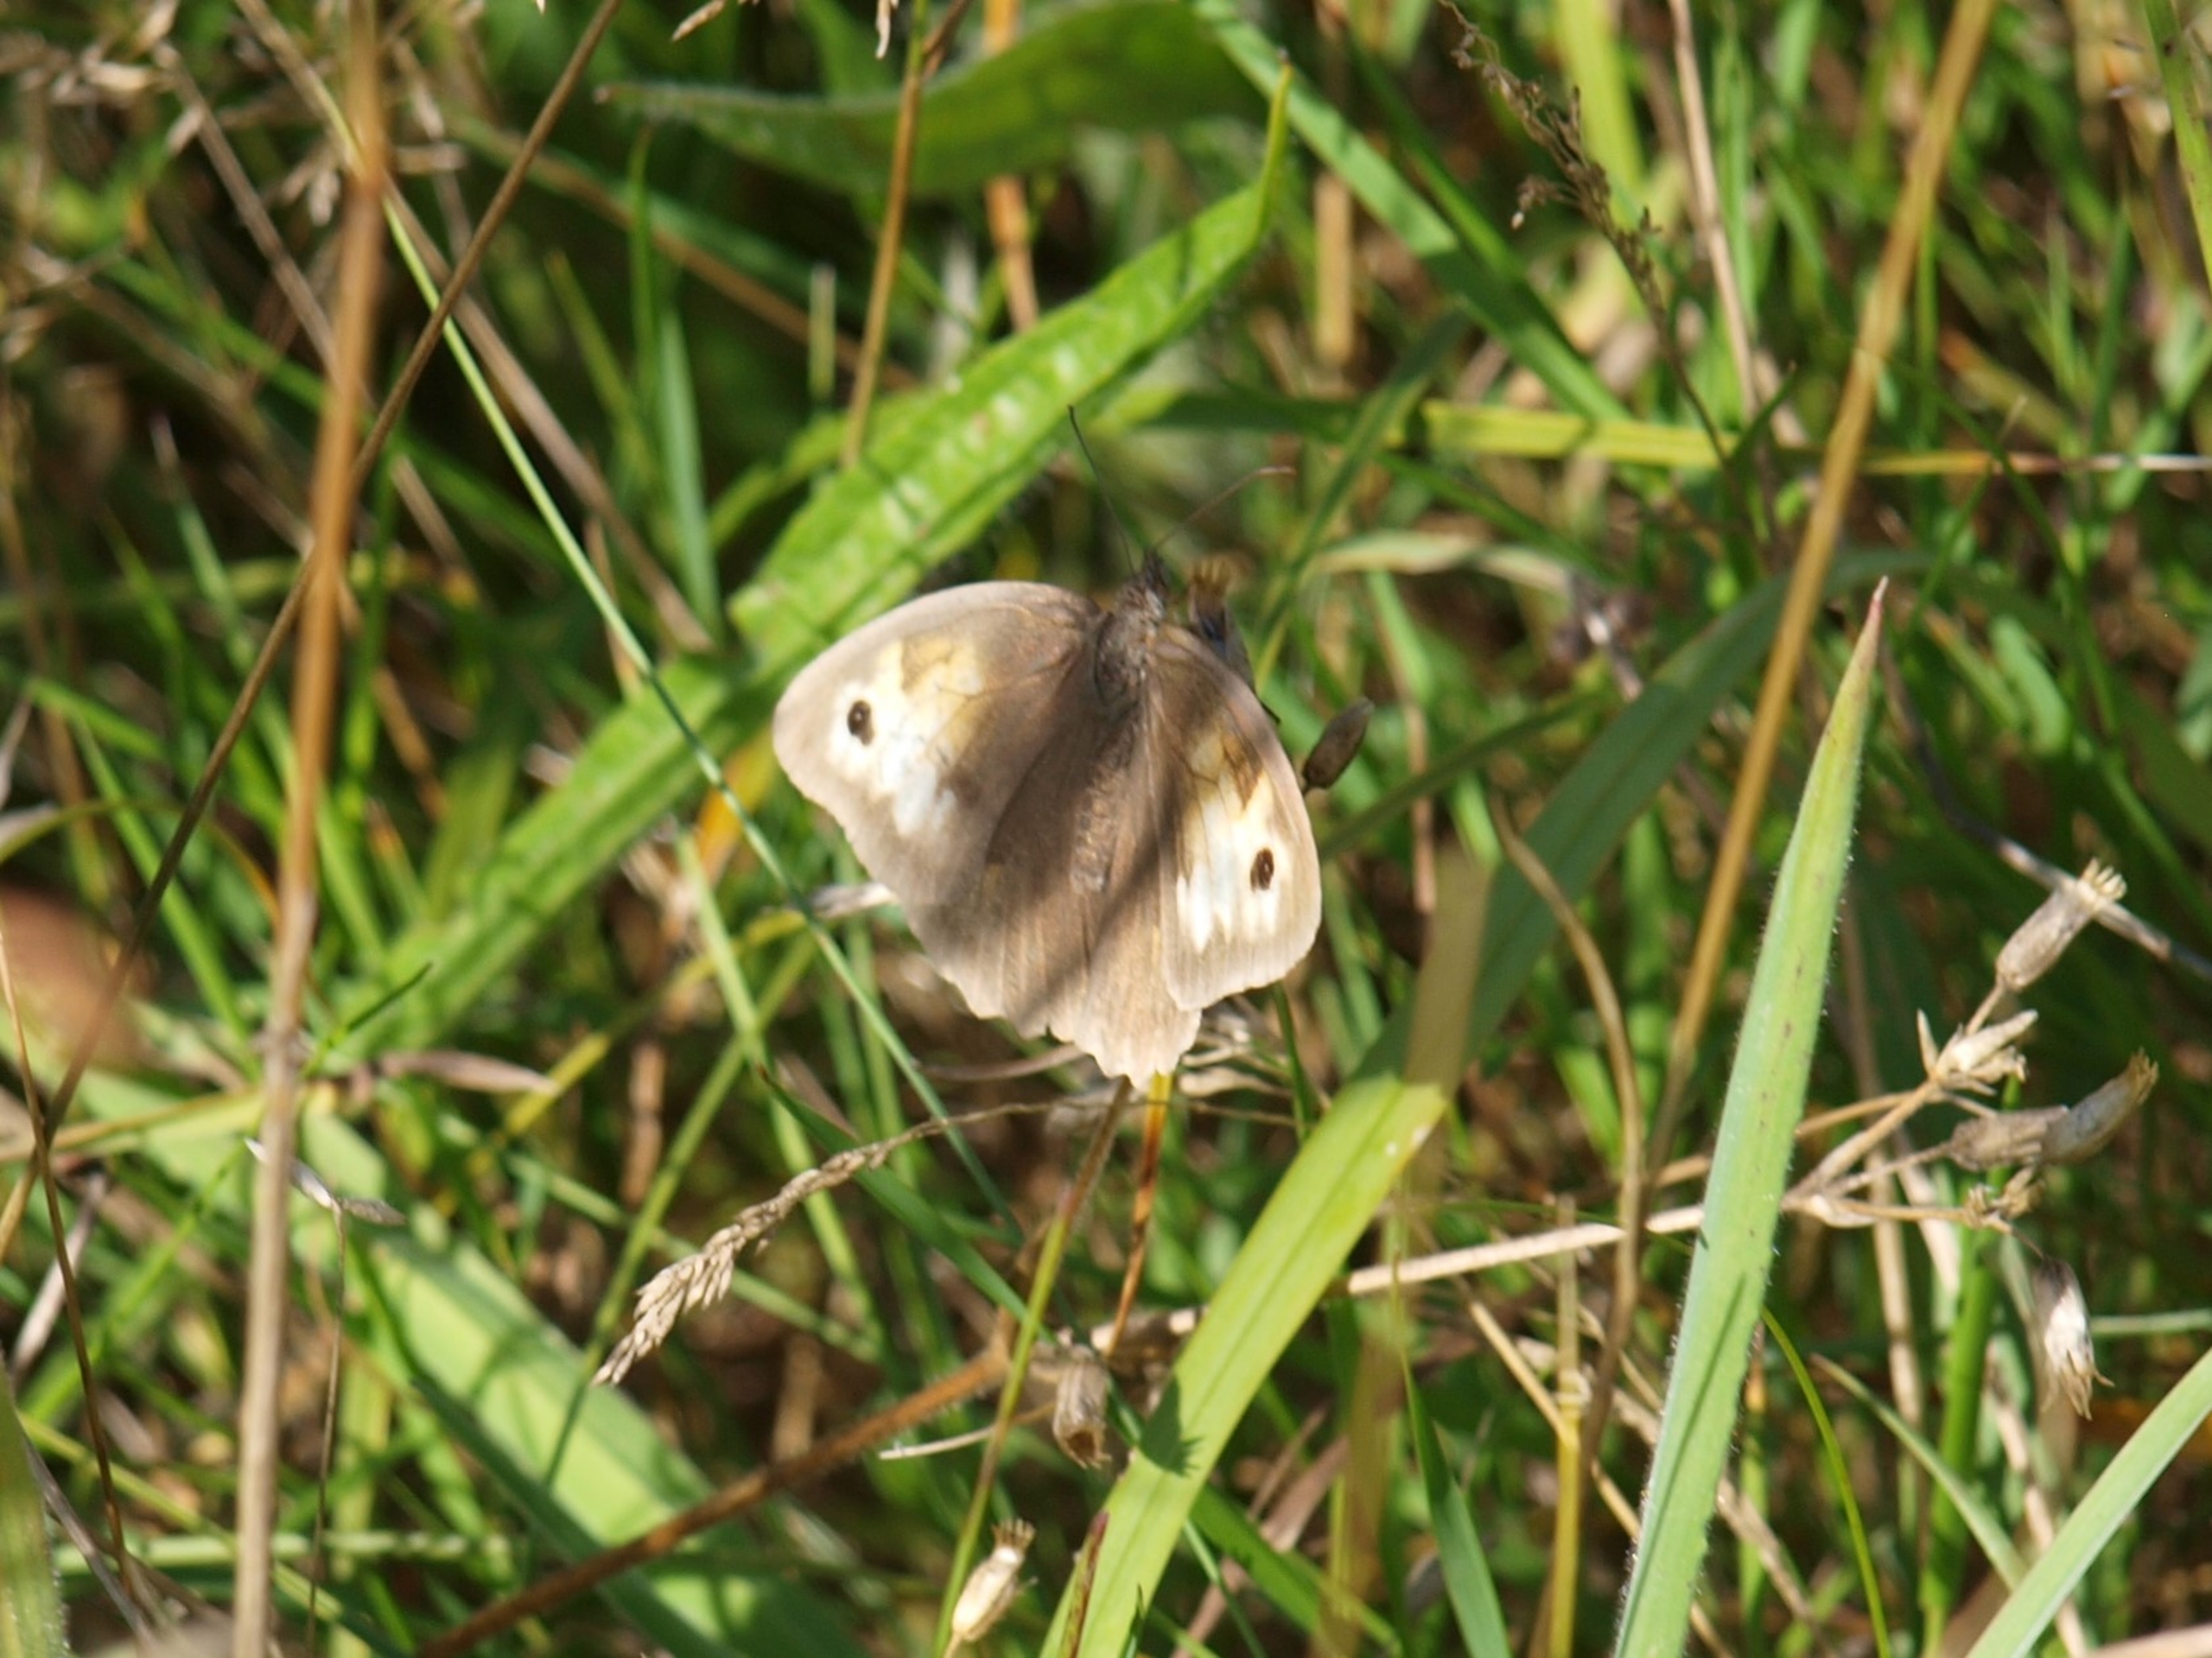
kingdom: Animalia
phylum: Arthropoda
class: Insecta
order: Lepidoptera
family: Nymphalidae
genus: Maniola
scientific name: Maniola jurtina
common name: Græsrandøje
